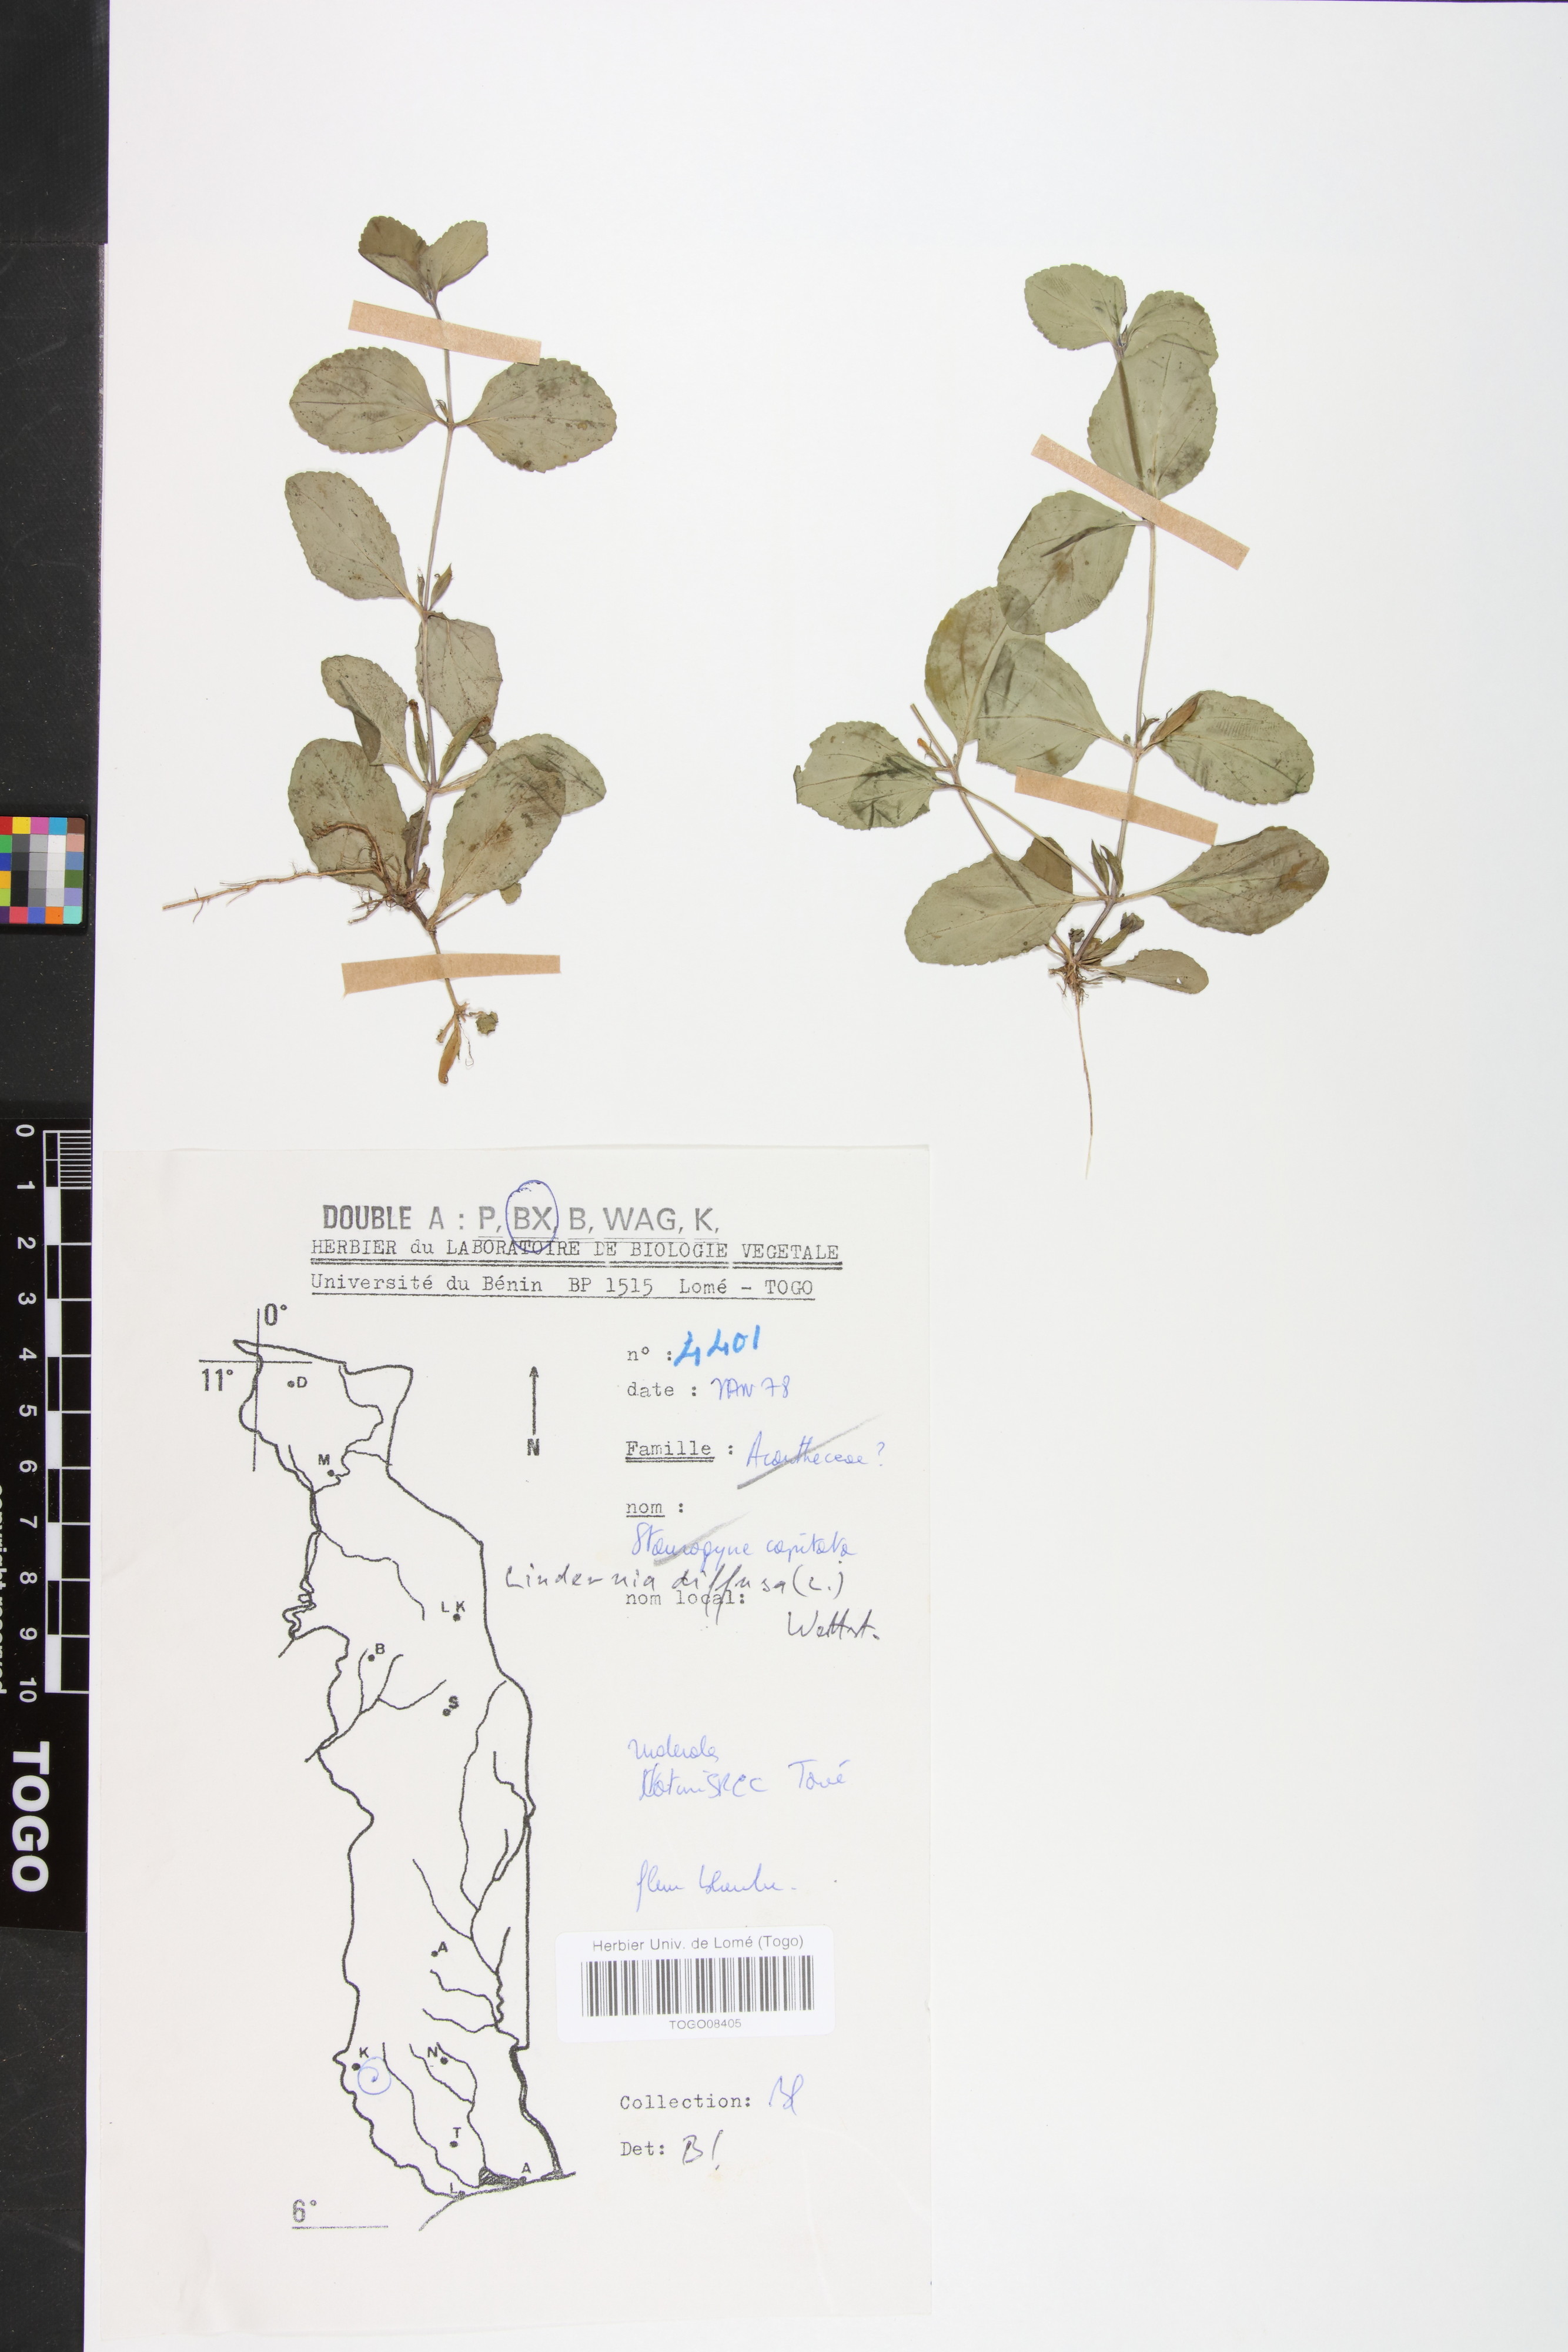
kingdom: Plantae
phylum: Tracheophyta
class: Magnoliopsida
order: Lamiales
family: Linderniaceae
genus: Vandellia
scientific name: Vandellia diffusa
